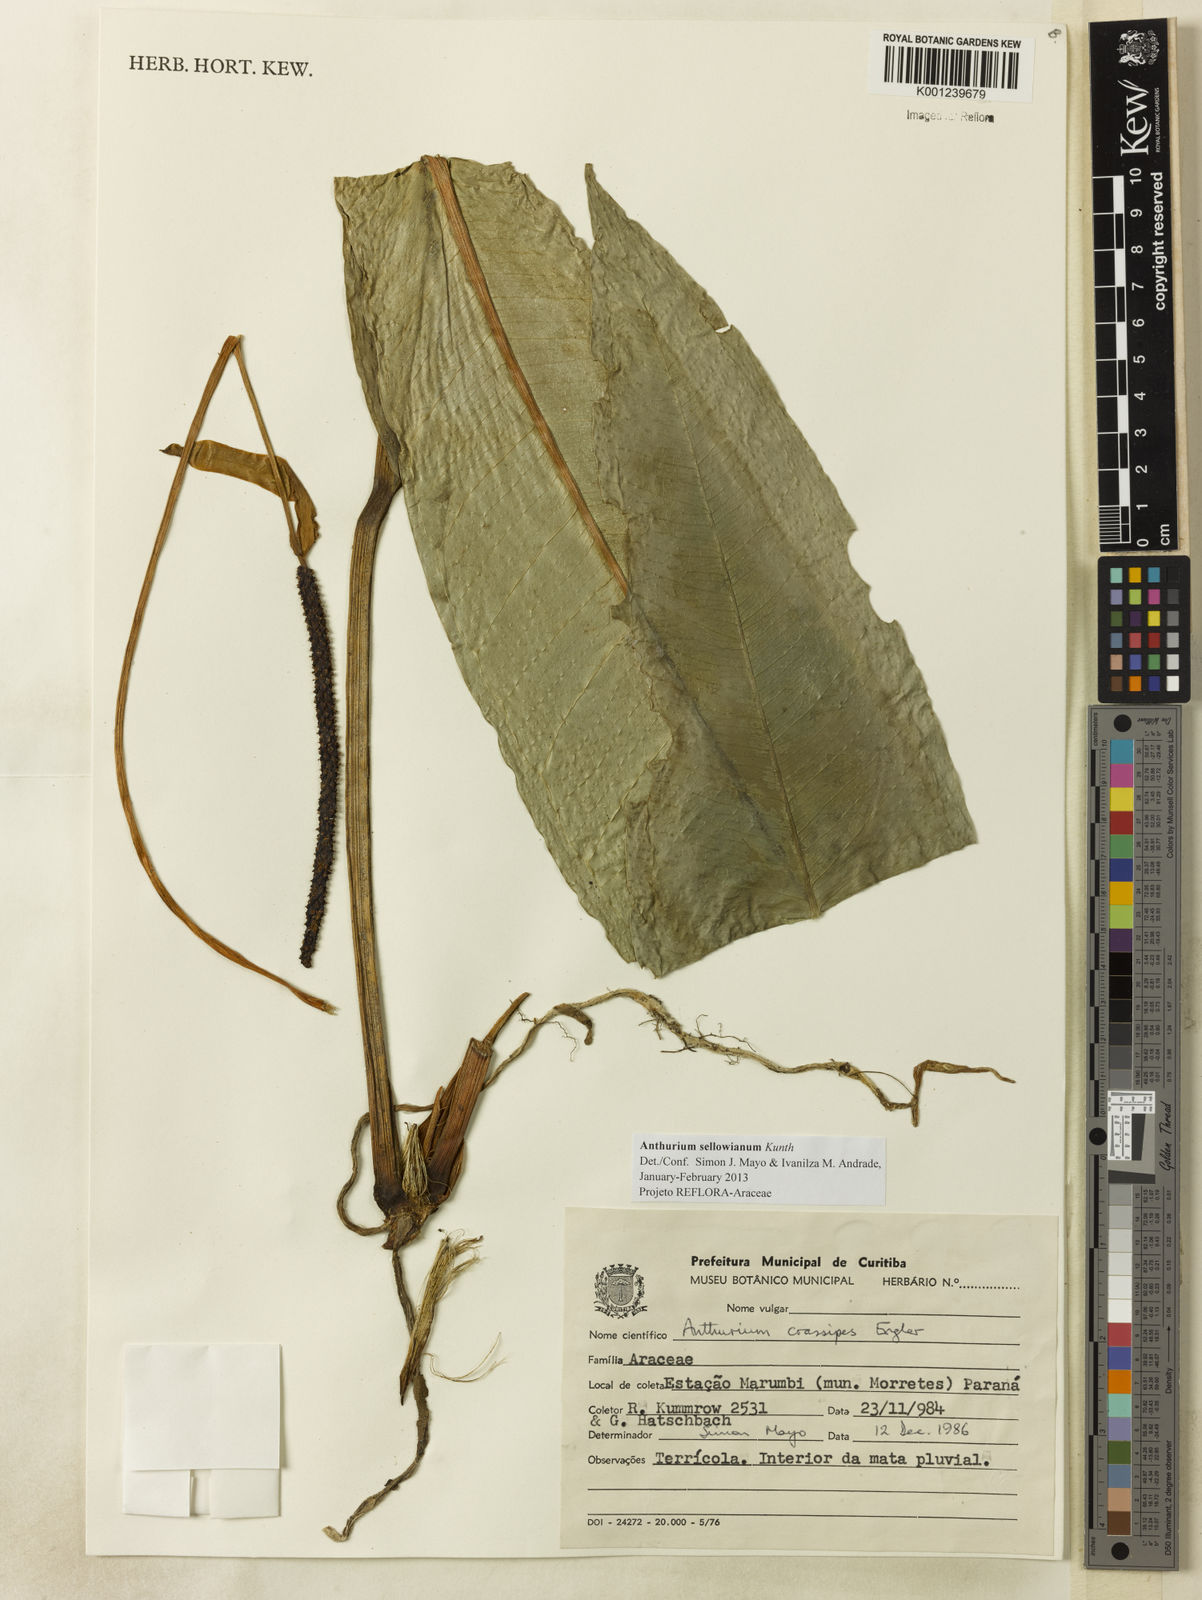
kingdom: Plantae
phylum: Tracheophyta
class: Liliopsida
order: Alismatales
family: Araceae
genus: Anthurium
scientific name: Anthurium sellowianum
